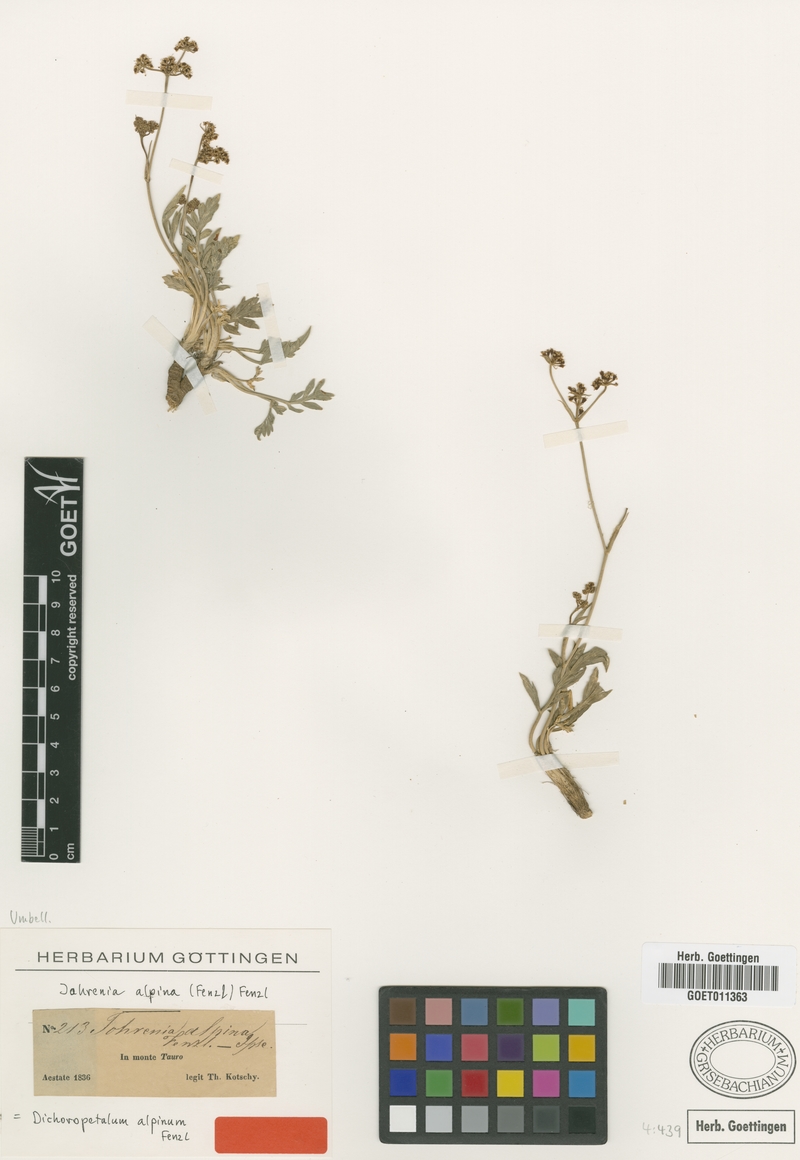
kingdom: Plantae
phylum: Tracheophyta
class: Magnoliopsida
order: Apiales
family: Apiaceae
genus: Dichoropetalum
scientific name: Dichoropetalum alpinum
